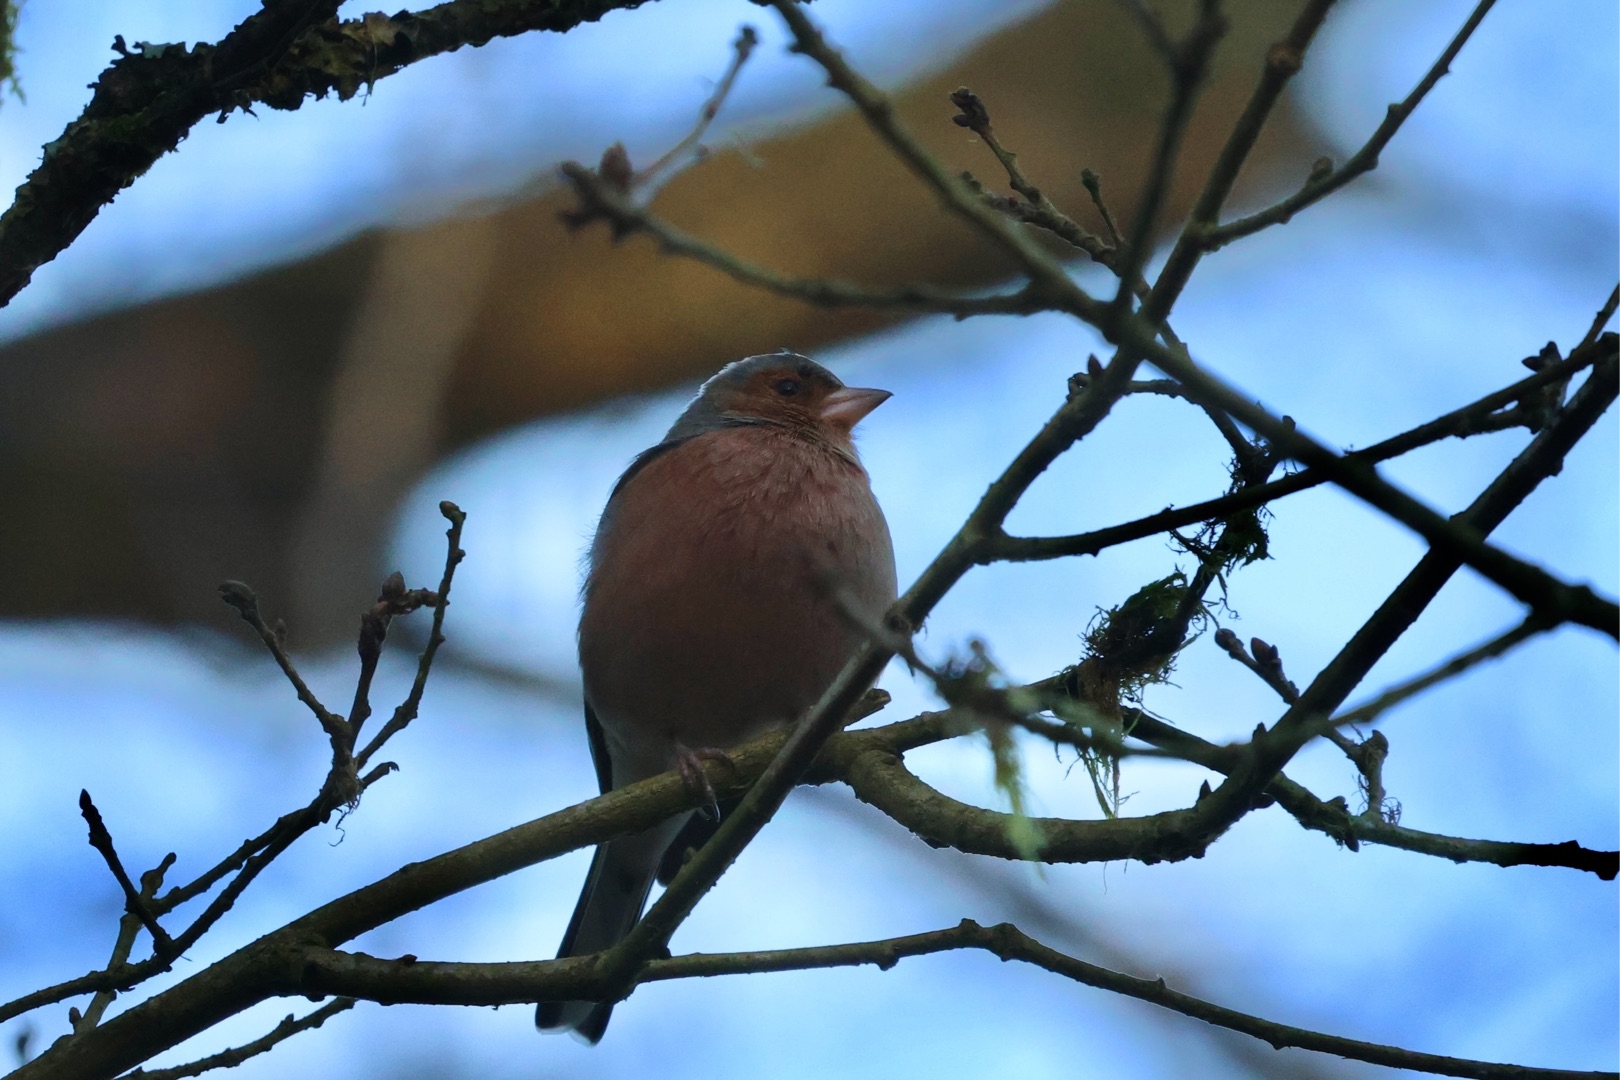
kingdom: Animalia
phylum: Chordata
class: Aves
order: Passeriformes
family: Fringillidae
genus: Fringilla
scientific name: Fringilla coelebs
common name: Bogfinke
